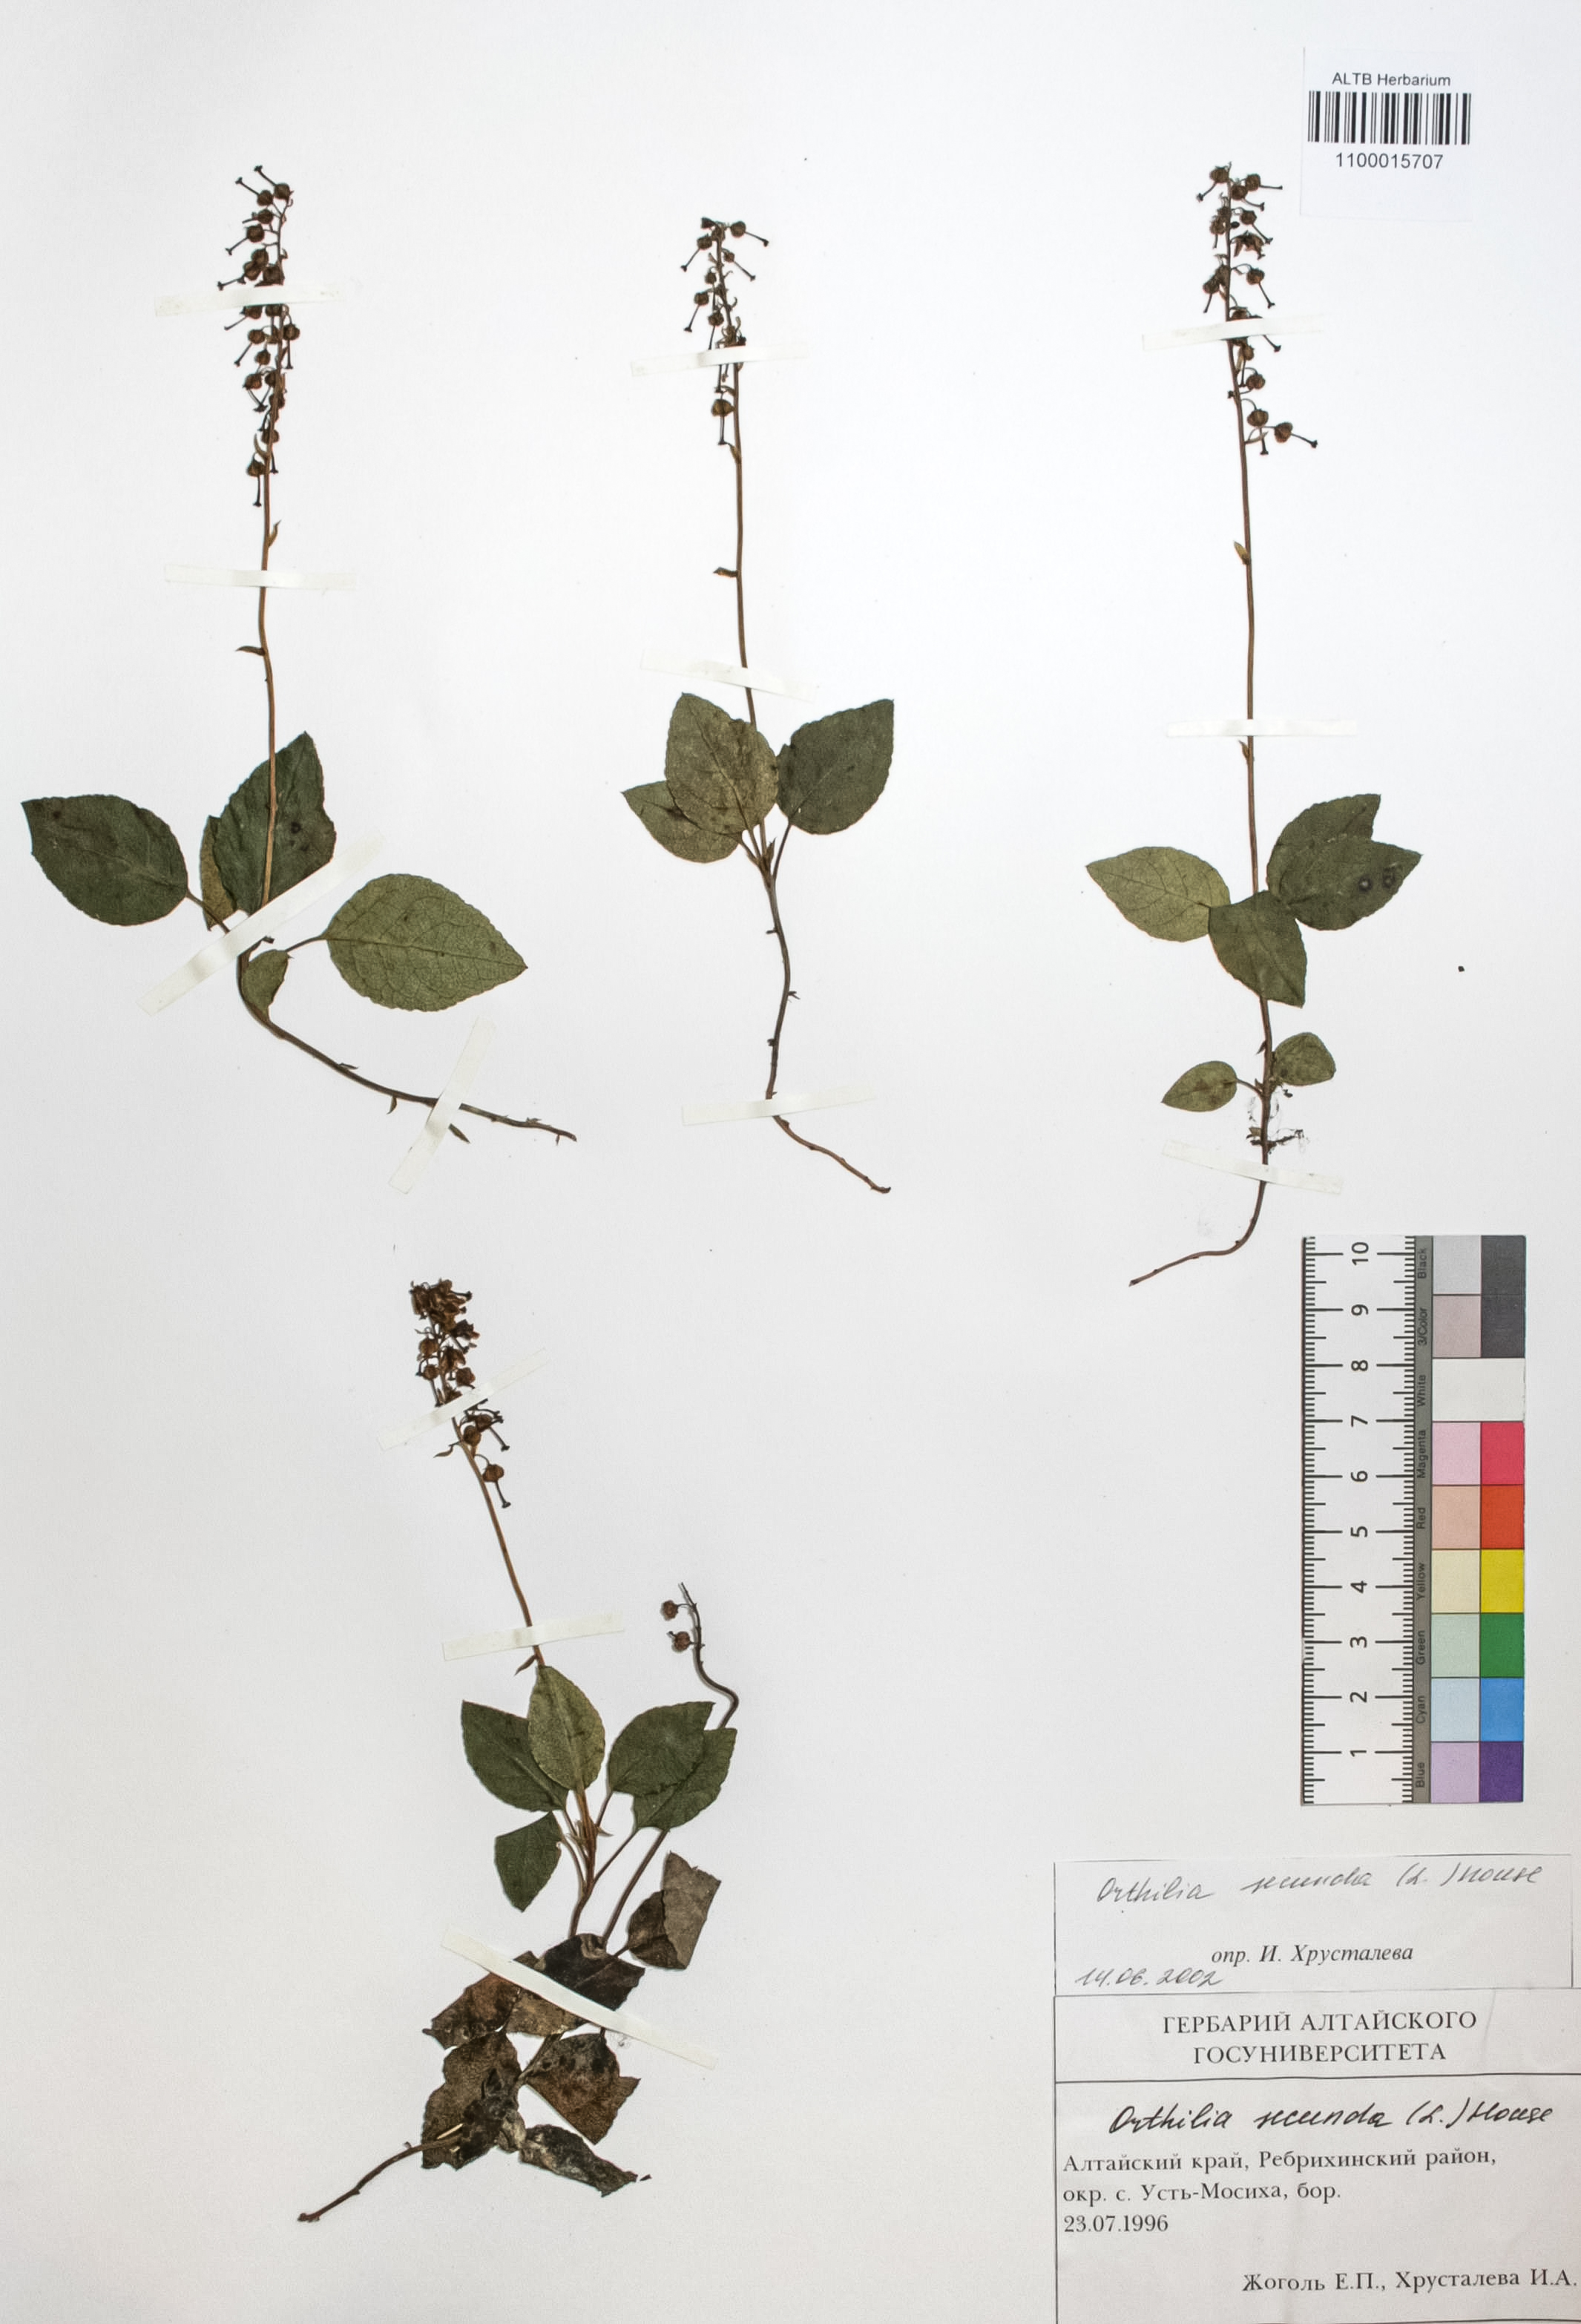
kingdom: Plantae
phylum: Tracheophyta
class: Magnoliopsida
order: Ericales
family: Ericaceae
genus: Orthilia
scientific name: Orthilia secunda
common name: One-sided orthilia
